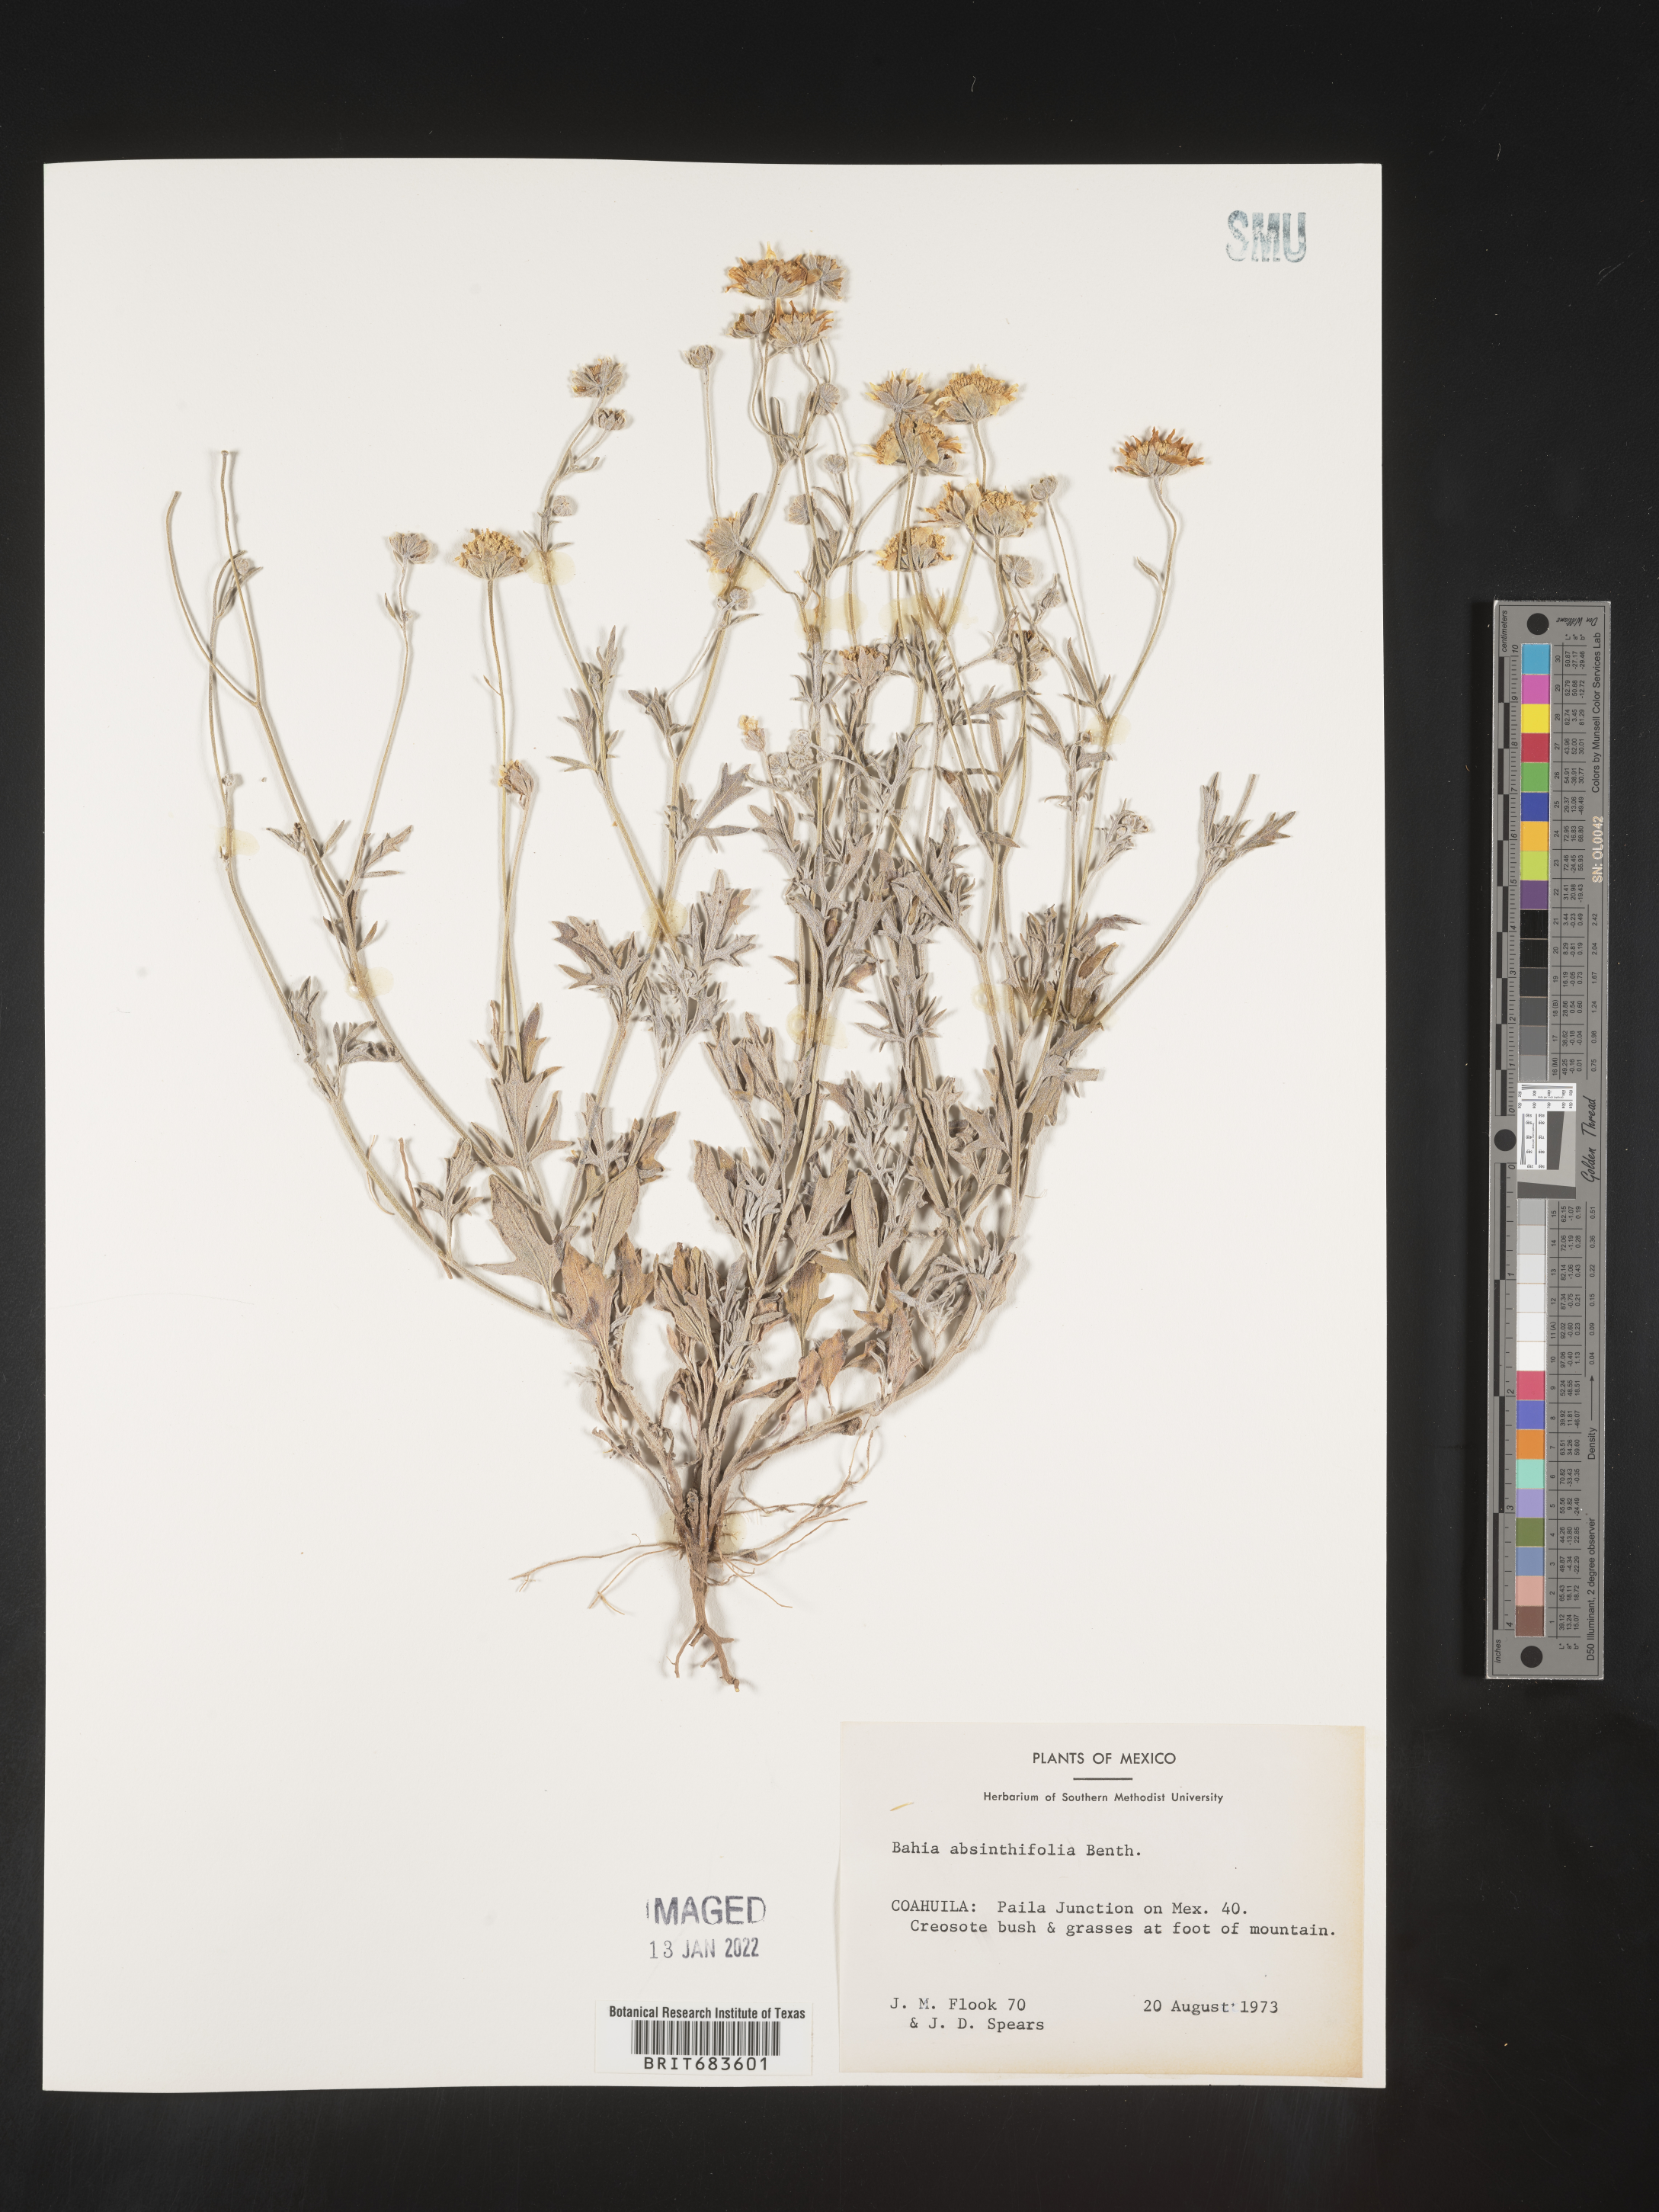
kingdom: Plantae
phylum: Tracheophyta
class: Magnoliopsida
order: Asterales
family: Asteraceae
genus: Picradeniopsis
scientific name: Picradeniopsis absinthifolia
